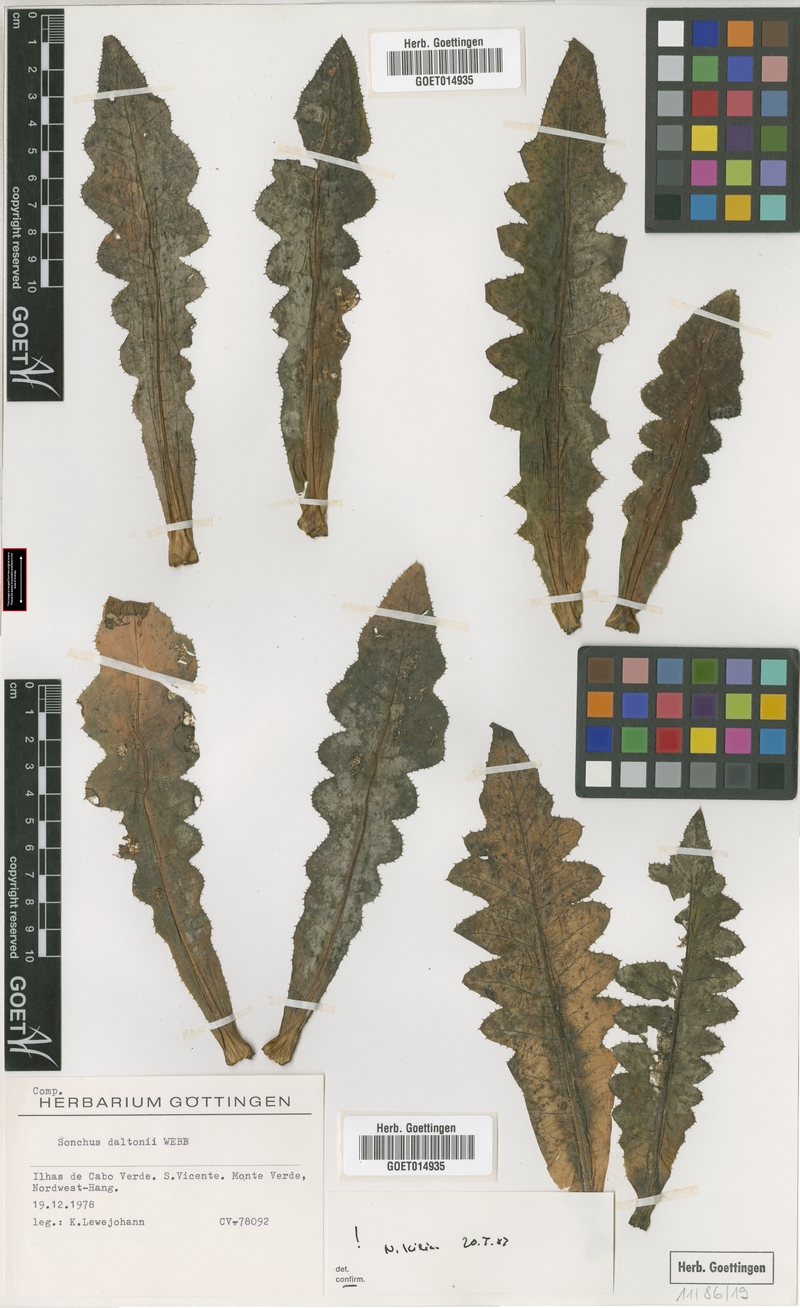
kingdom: Plantae
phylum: Tracheophyta
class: Magnoliopsida
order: Asterales
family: Asteraceae
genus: Sonchus
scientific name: Sonchus daltonii
